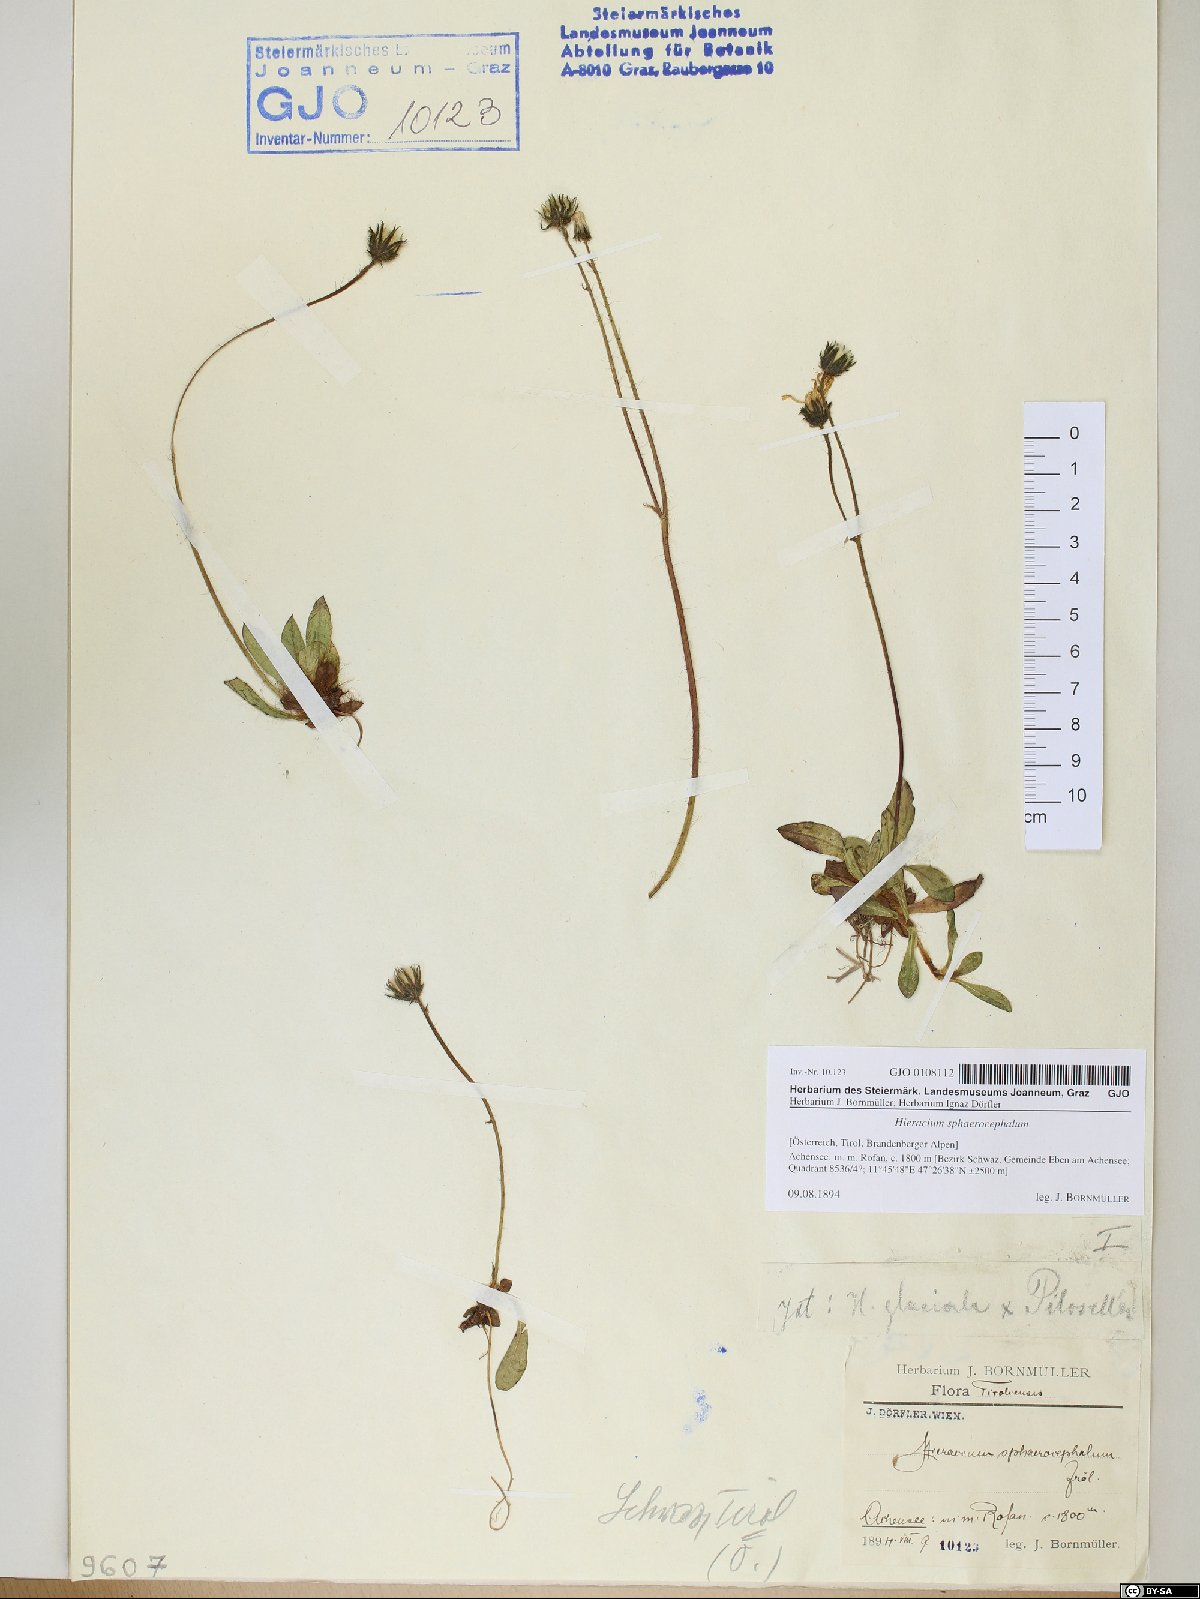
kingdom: Plantae
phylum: Tracheophyta
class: Magnoliopsida
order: Asterales
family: Asteraceae
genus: Pilosella
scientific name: Pilosella sphaerocephala
